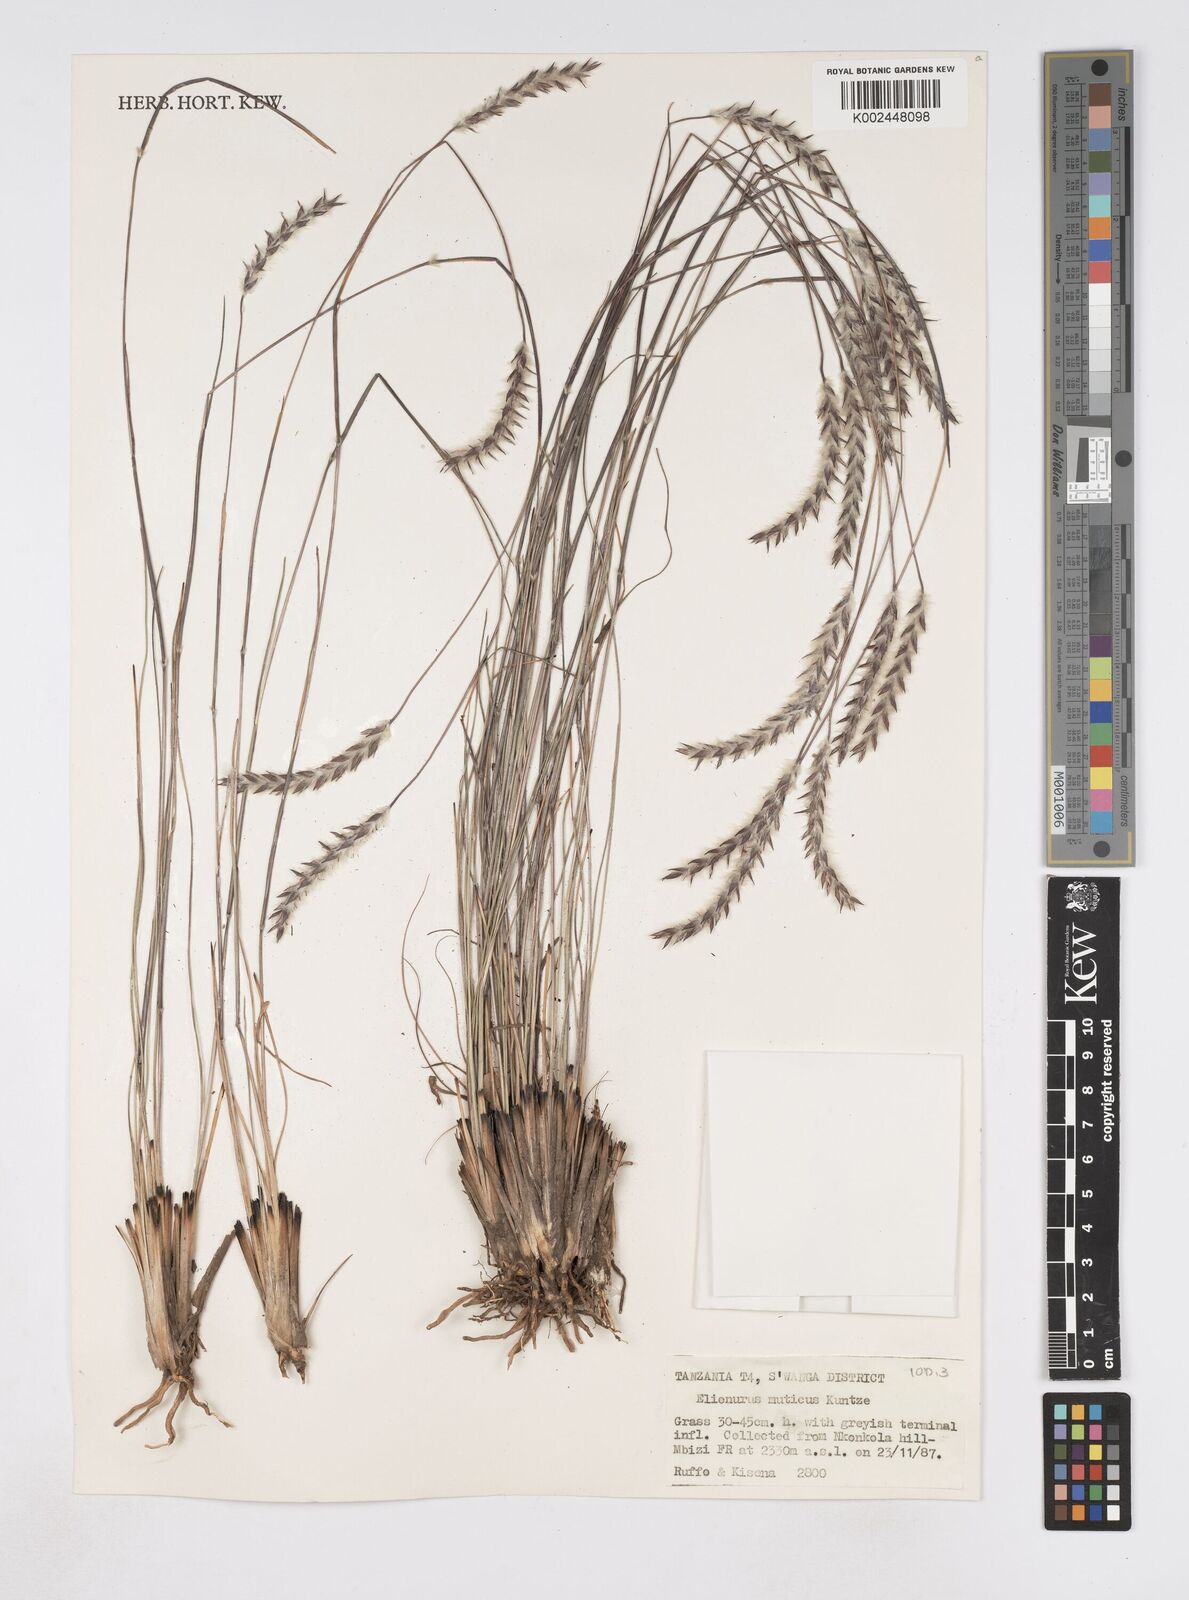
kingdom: Plantae
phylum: Tracheophyta
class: Liliopsida
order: Poales
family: Poaceae
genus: Elionurus
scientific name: Elionurus muticus
